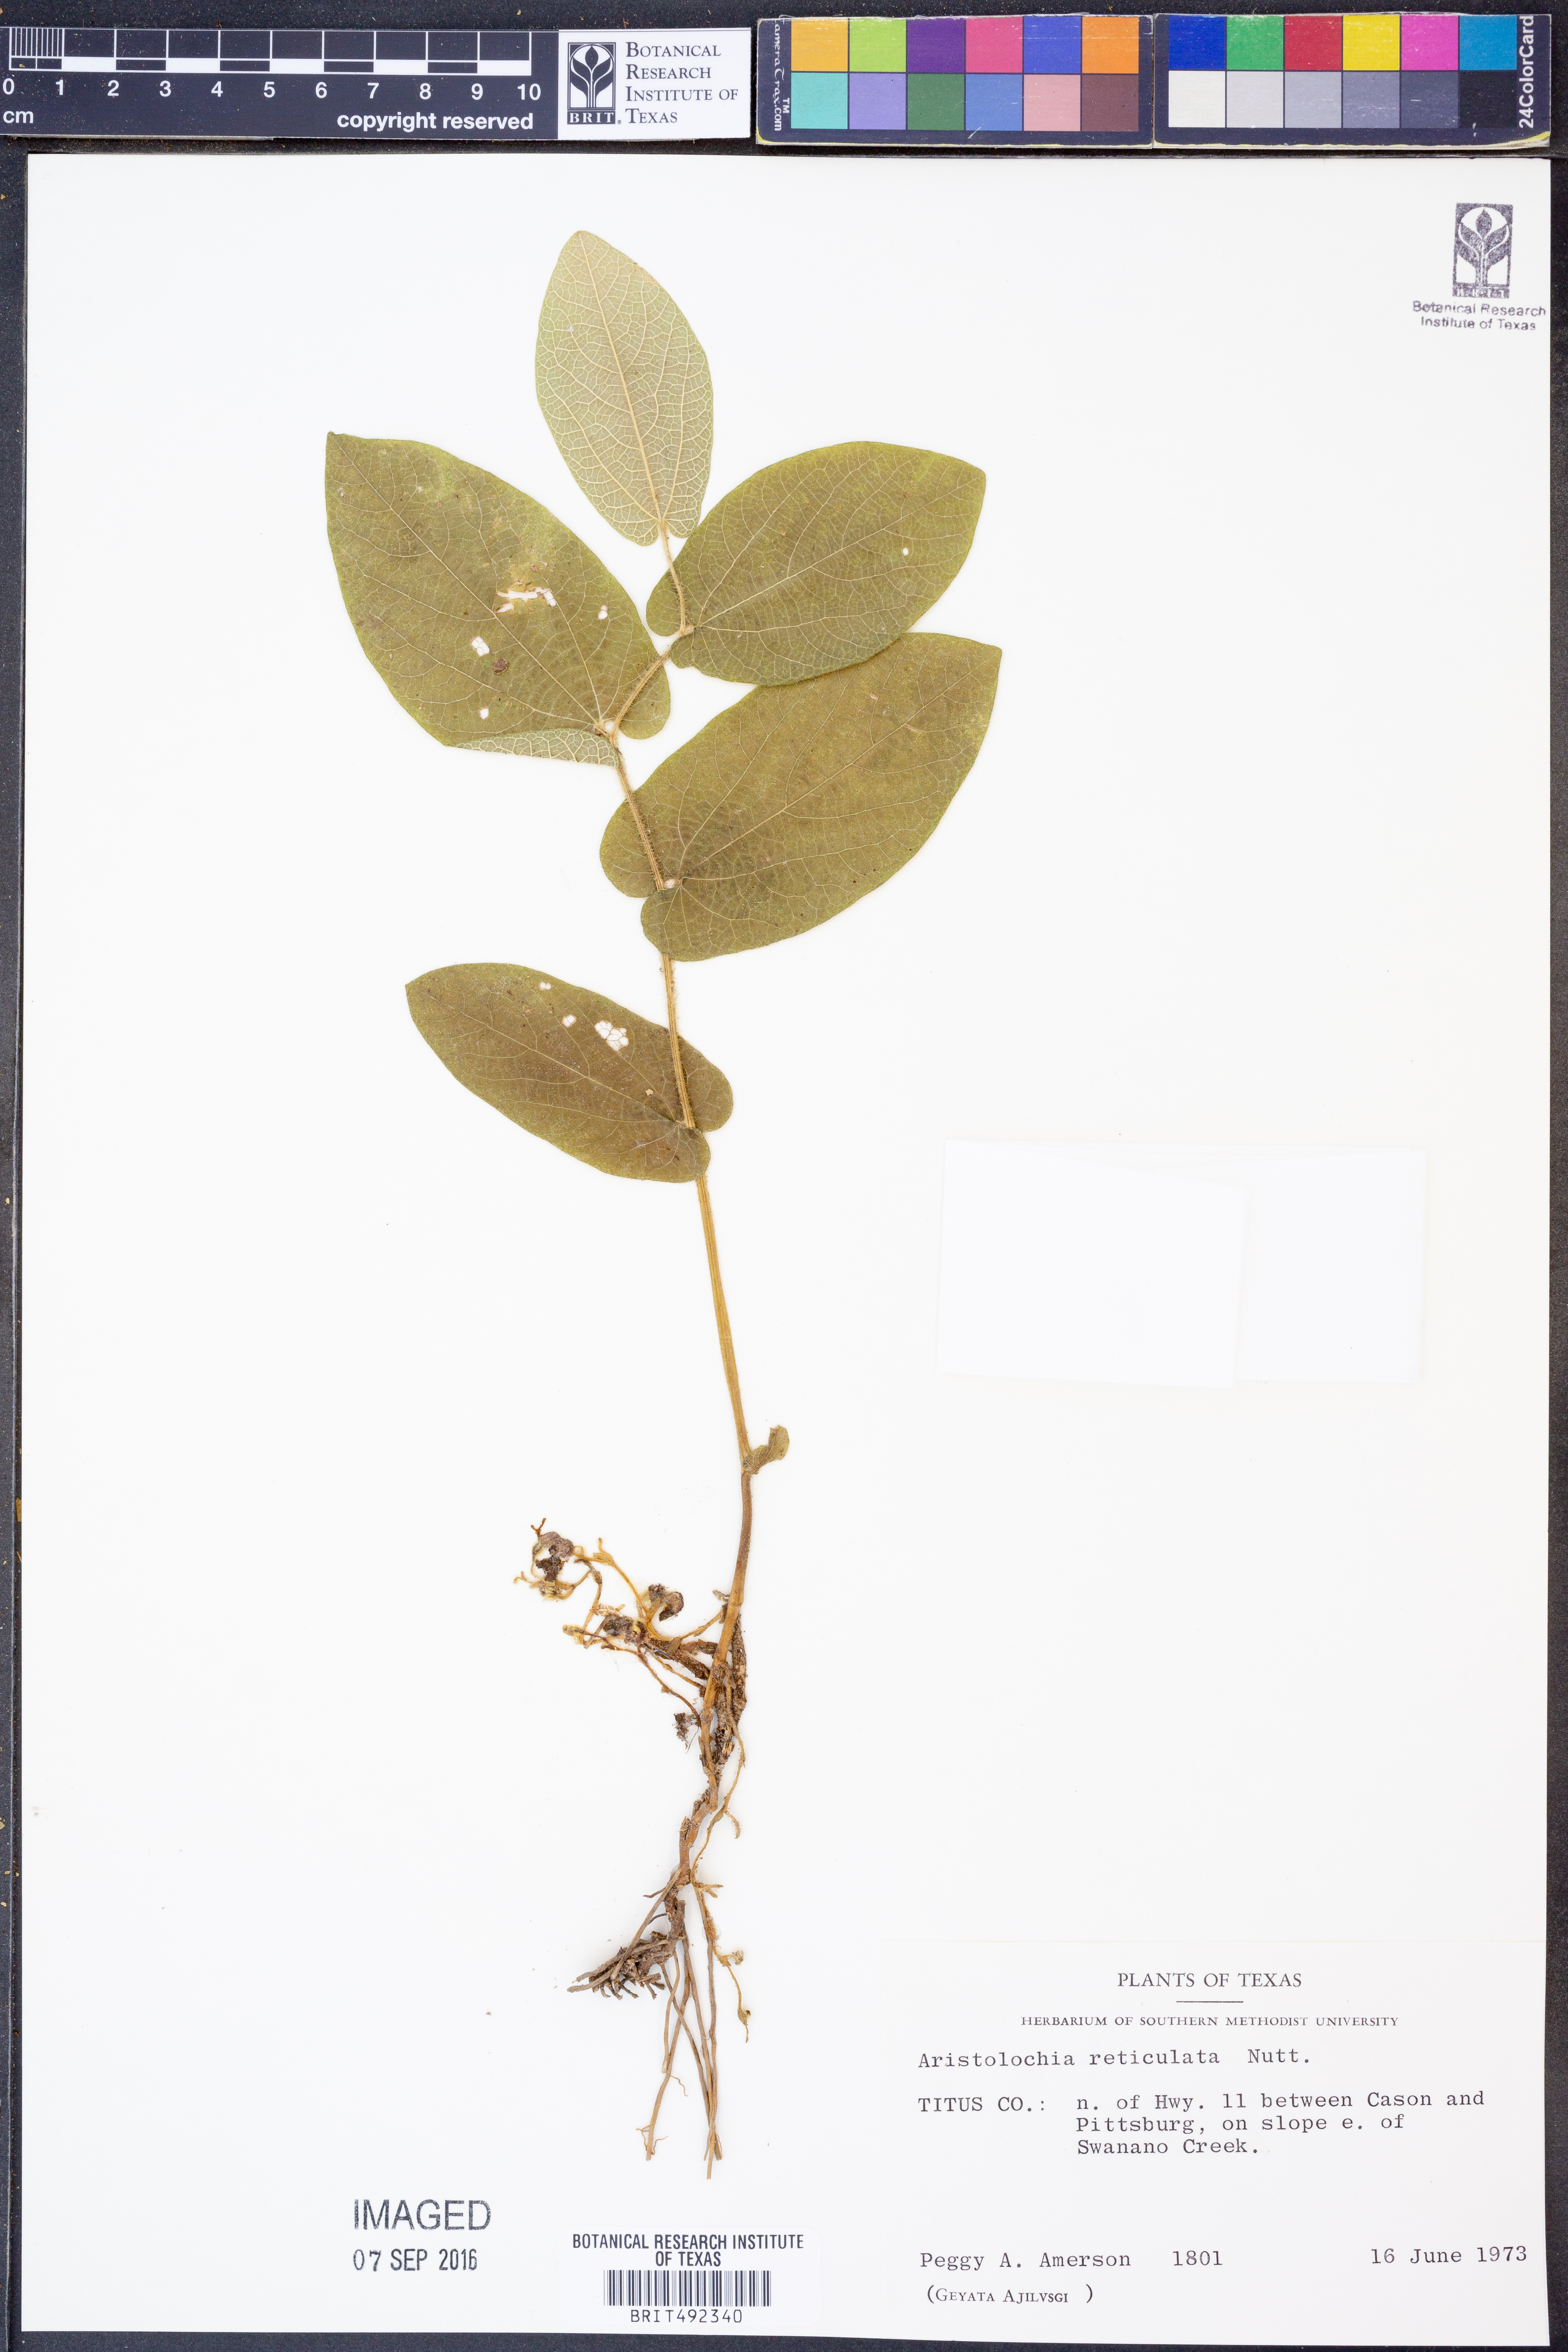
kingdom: Plantae
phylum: Tracheophyta
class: Magnoliopsida
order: Piperales
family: Aristolochiaceae
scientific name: Aristolochiaceae
